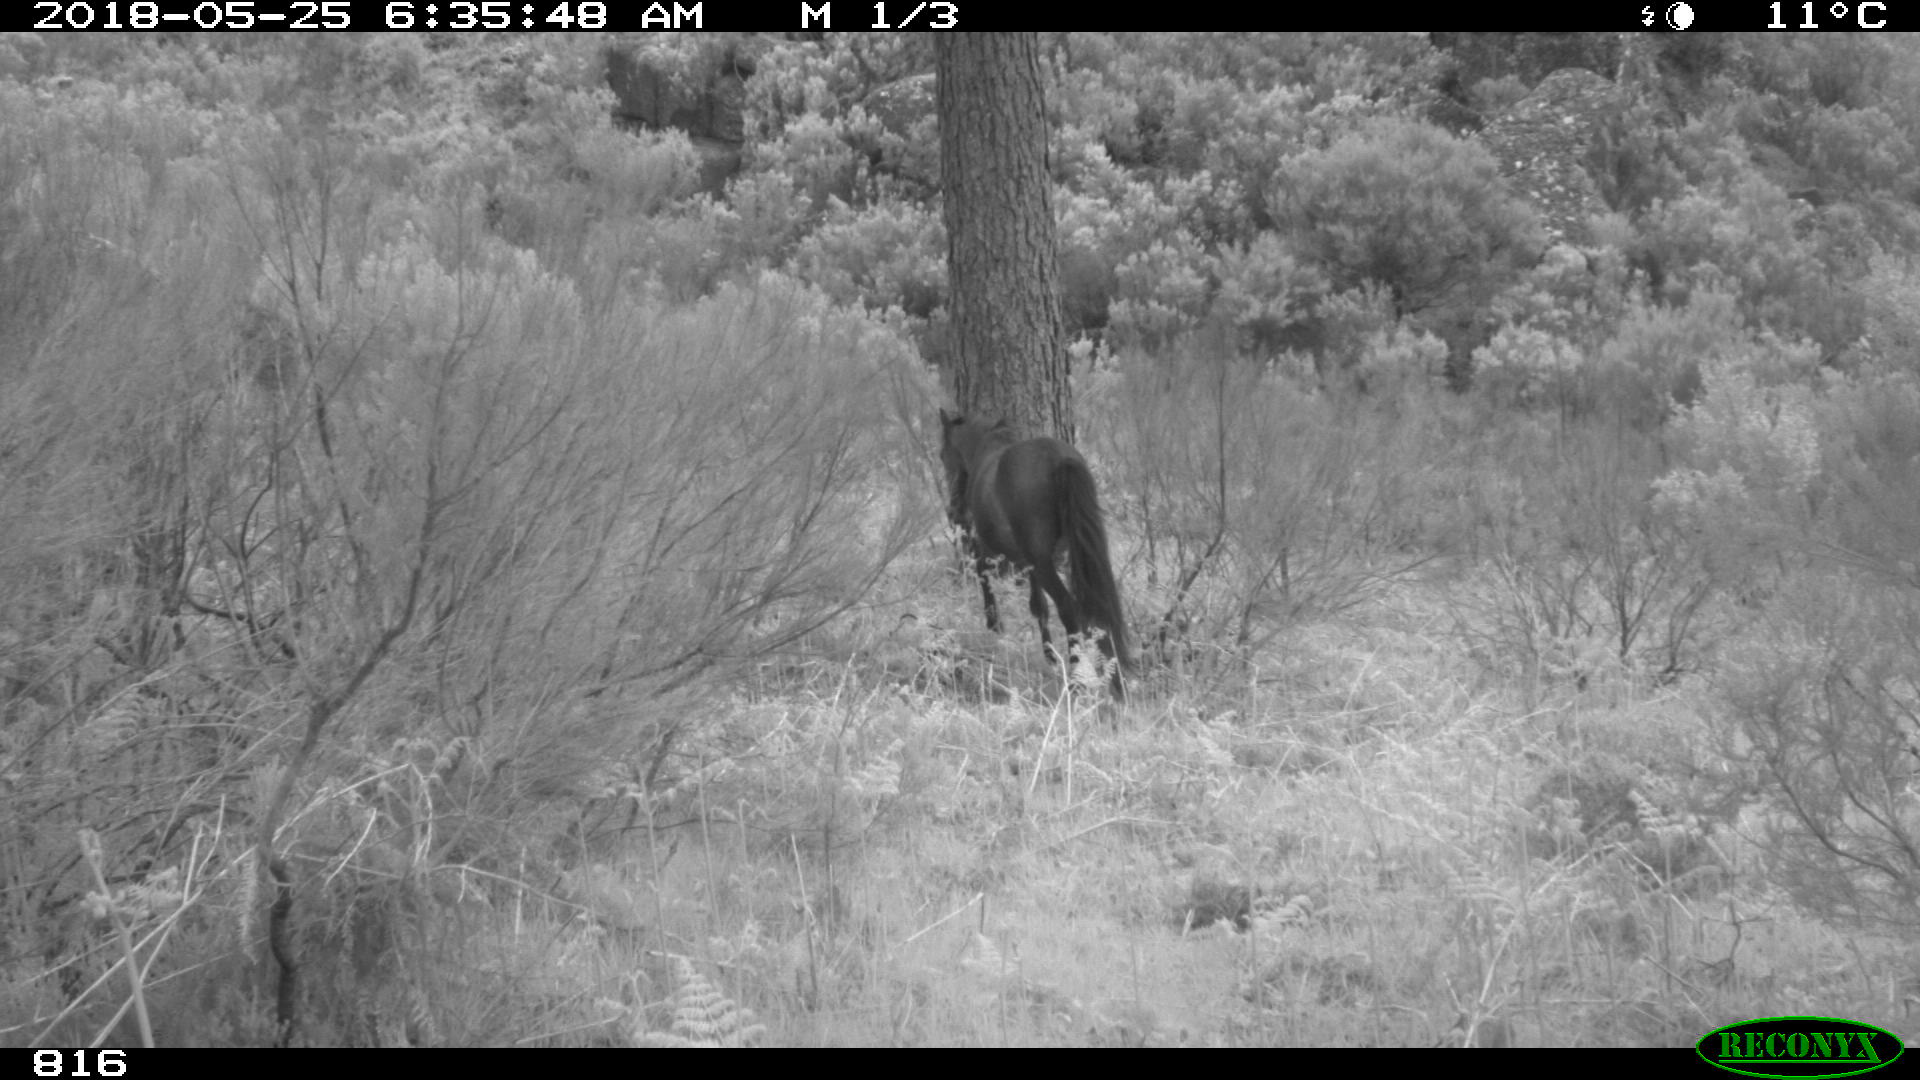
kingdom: Animalia
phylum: Chordata
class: Mammalia
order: Perissodactyla
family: Equidae
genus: Equus
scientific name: Equus caballus
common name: Horse
